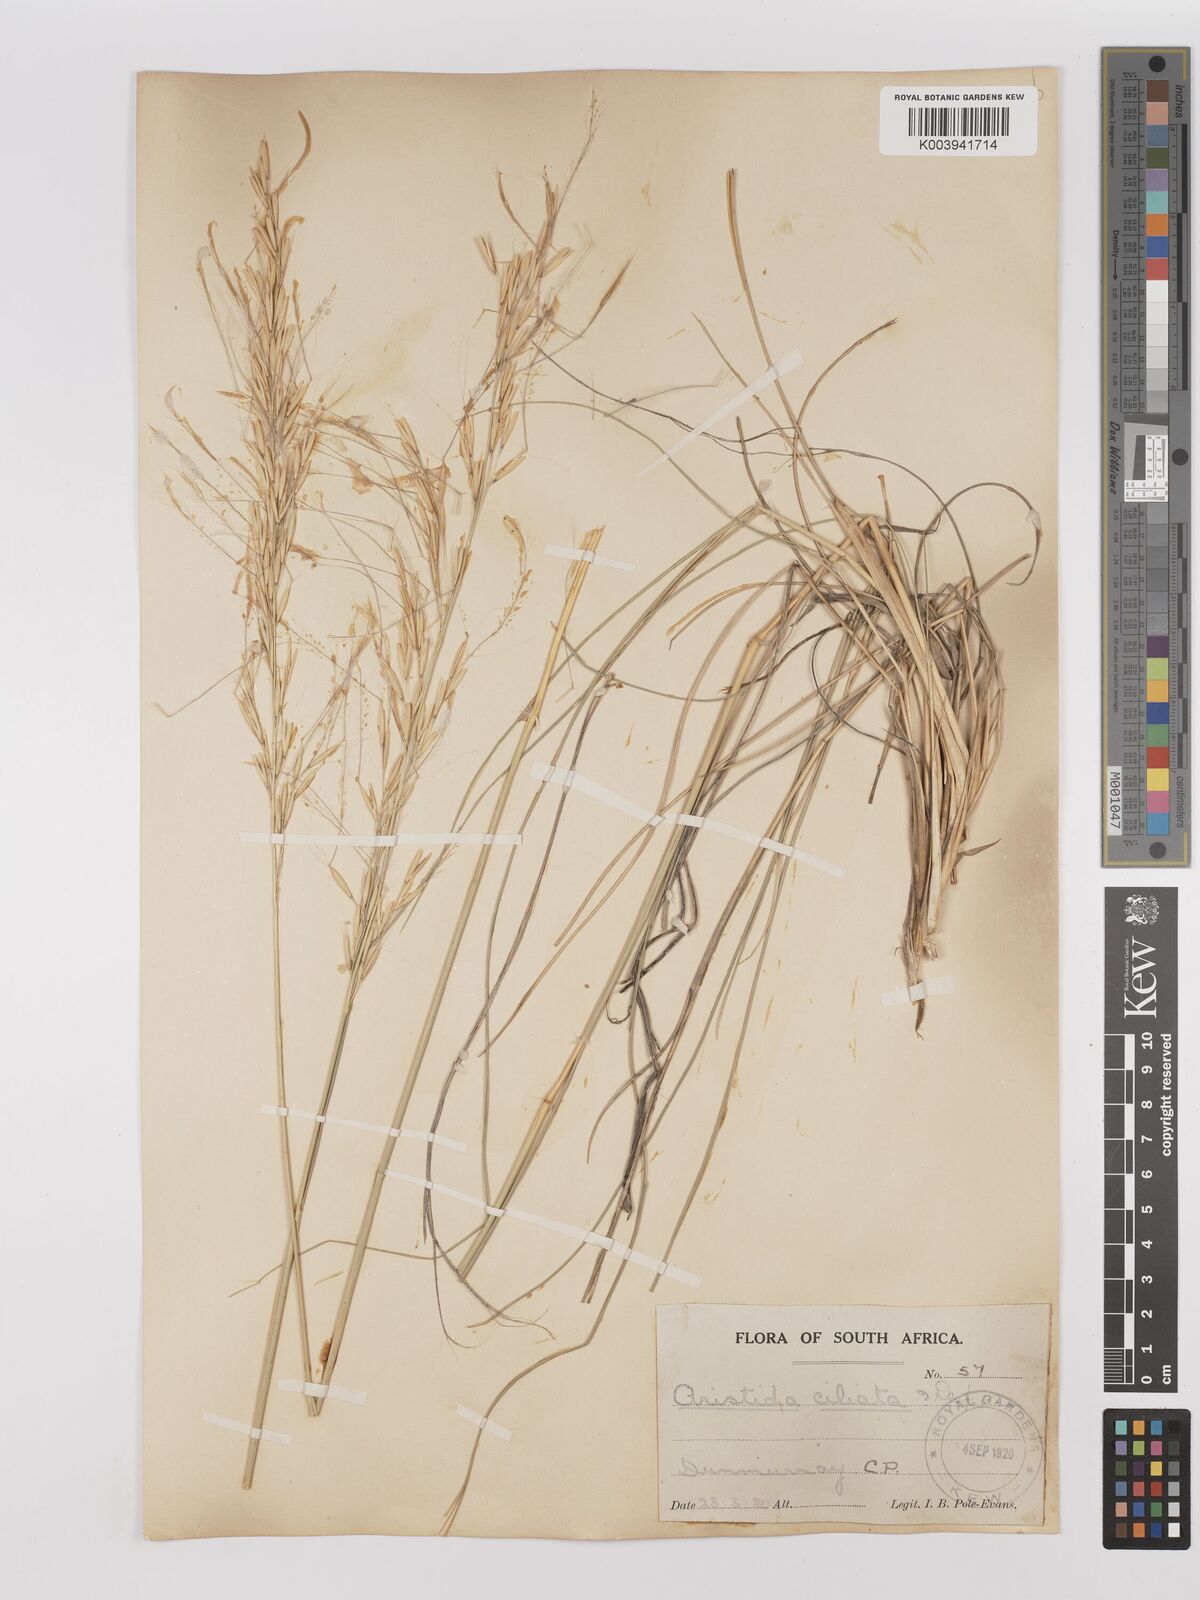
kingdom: Plantae
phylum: Tracheophyta
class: Liliopsida
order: Poales
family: Poaceae
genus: Stipagrostis
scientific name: Stipagrostis ciliata
